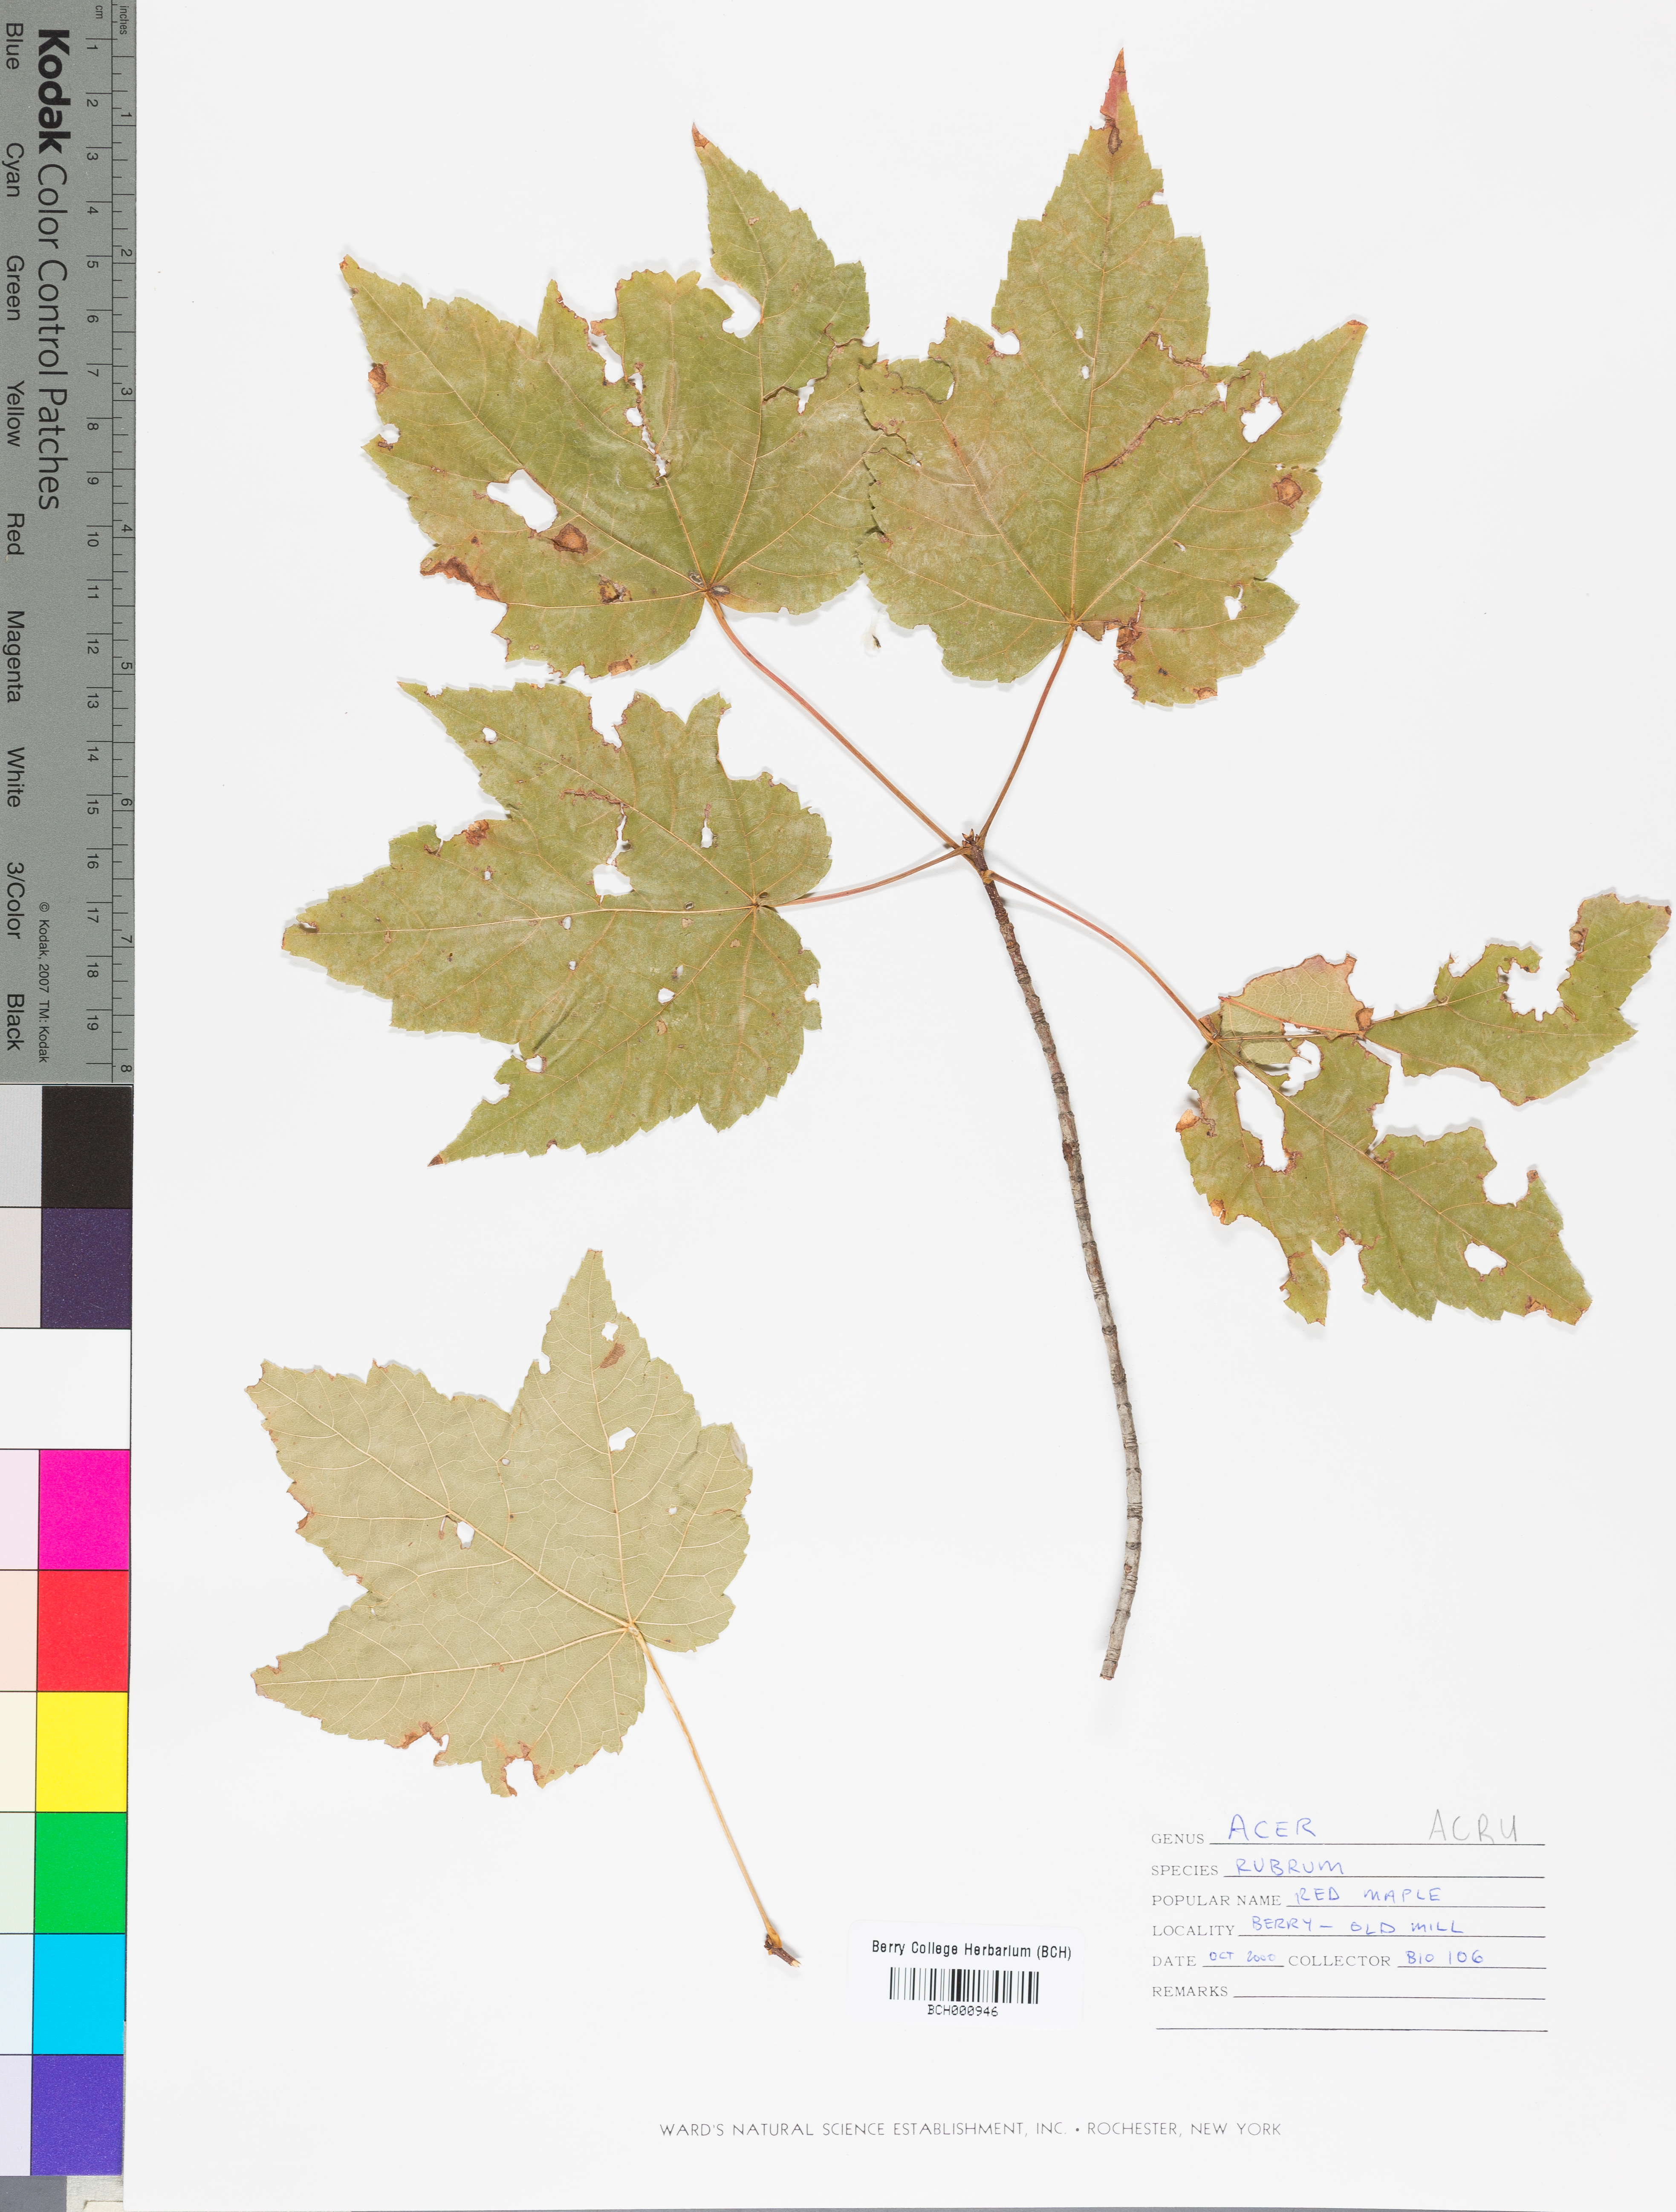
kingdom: Plantae
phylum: Tracheophyta
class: Magnoliopsida
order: Sapindales
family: Sapindaceae
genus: Acer
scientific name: Acer rubrum
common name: Red maple
